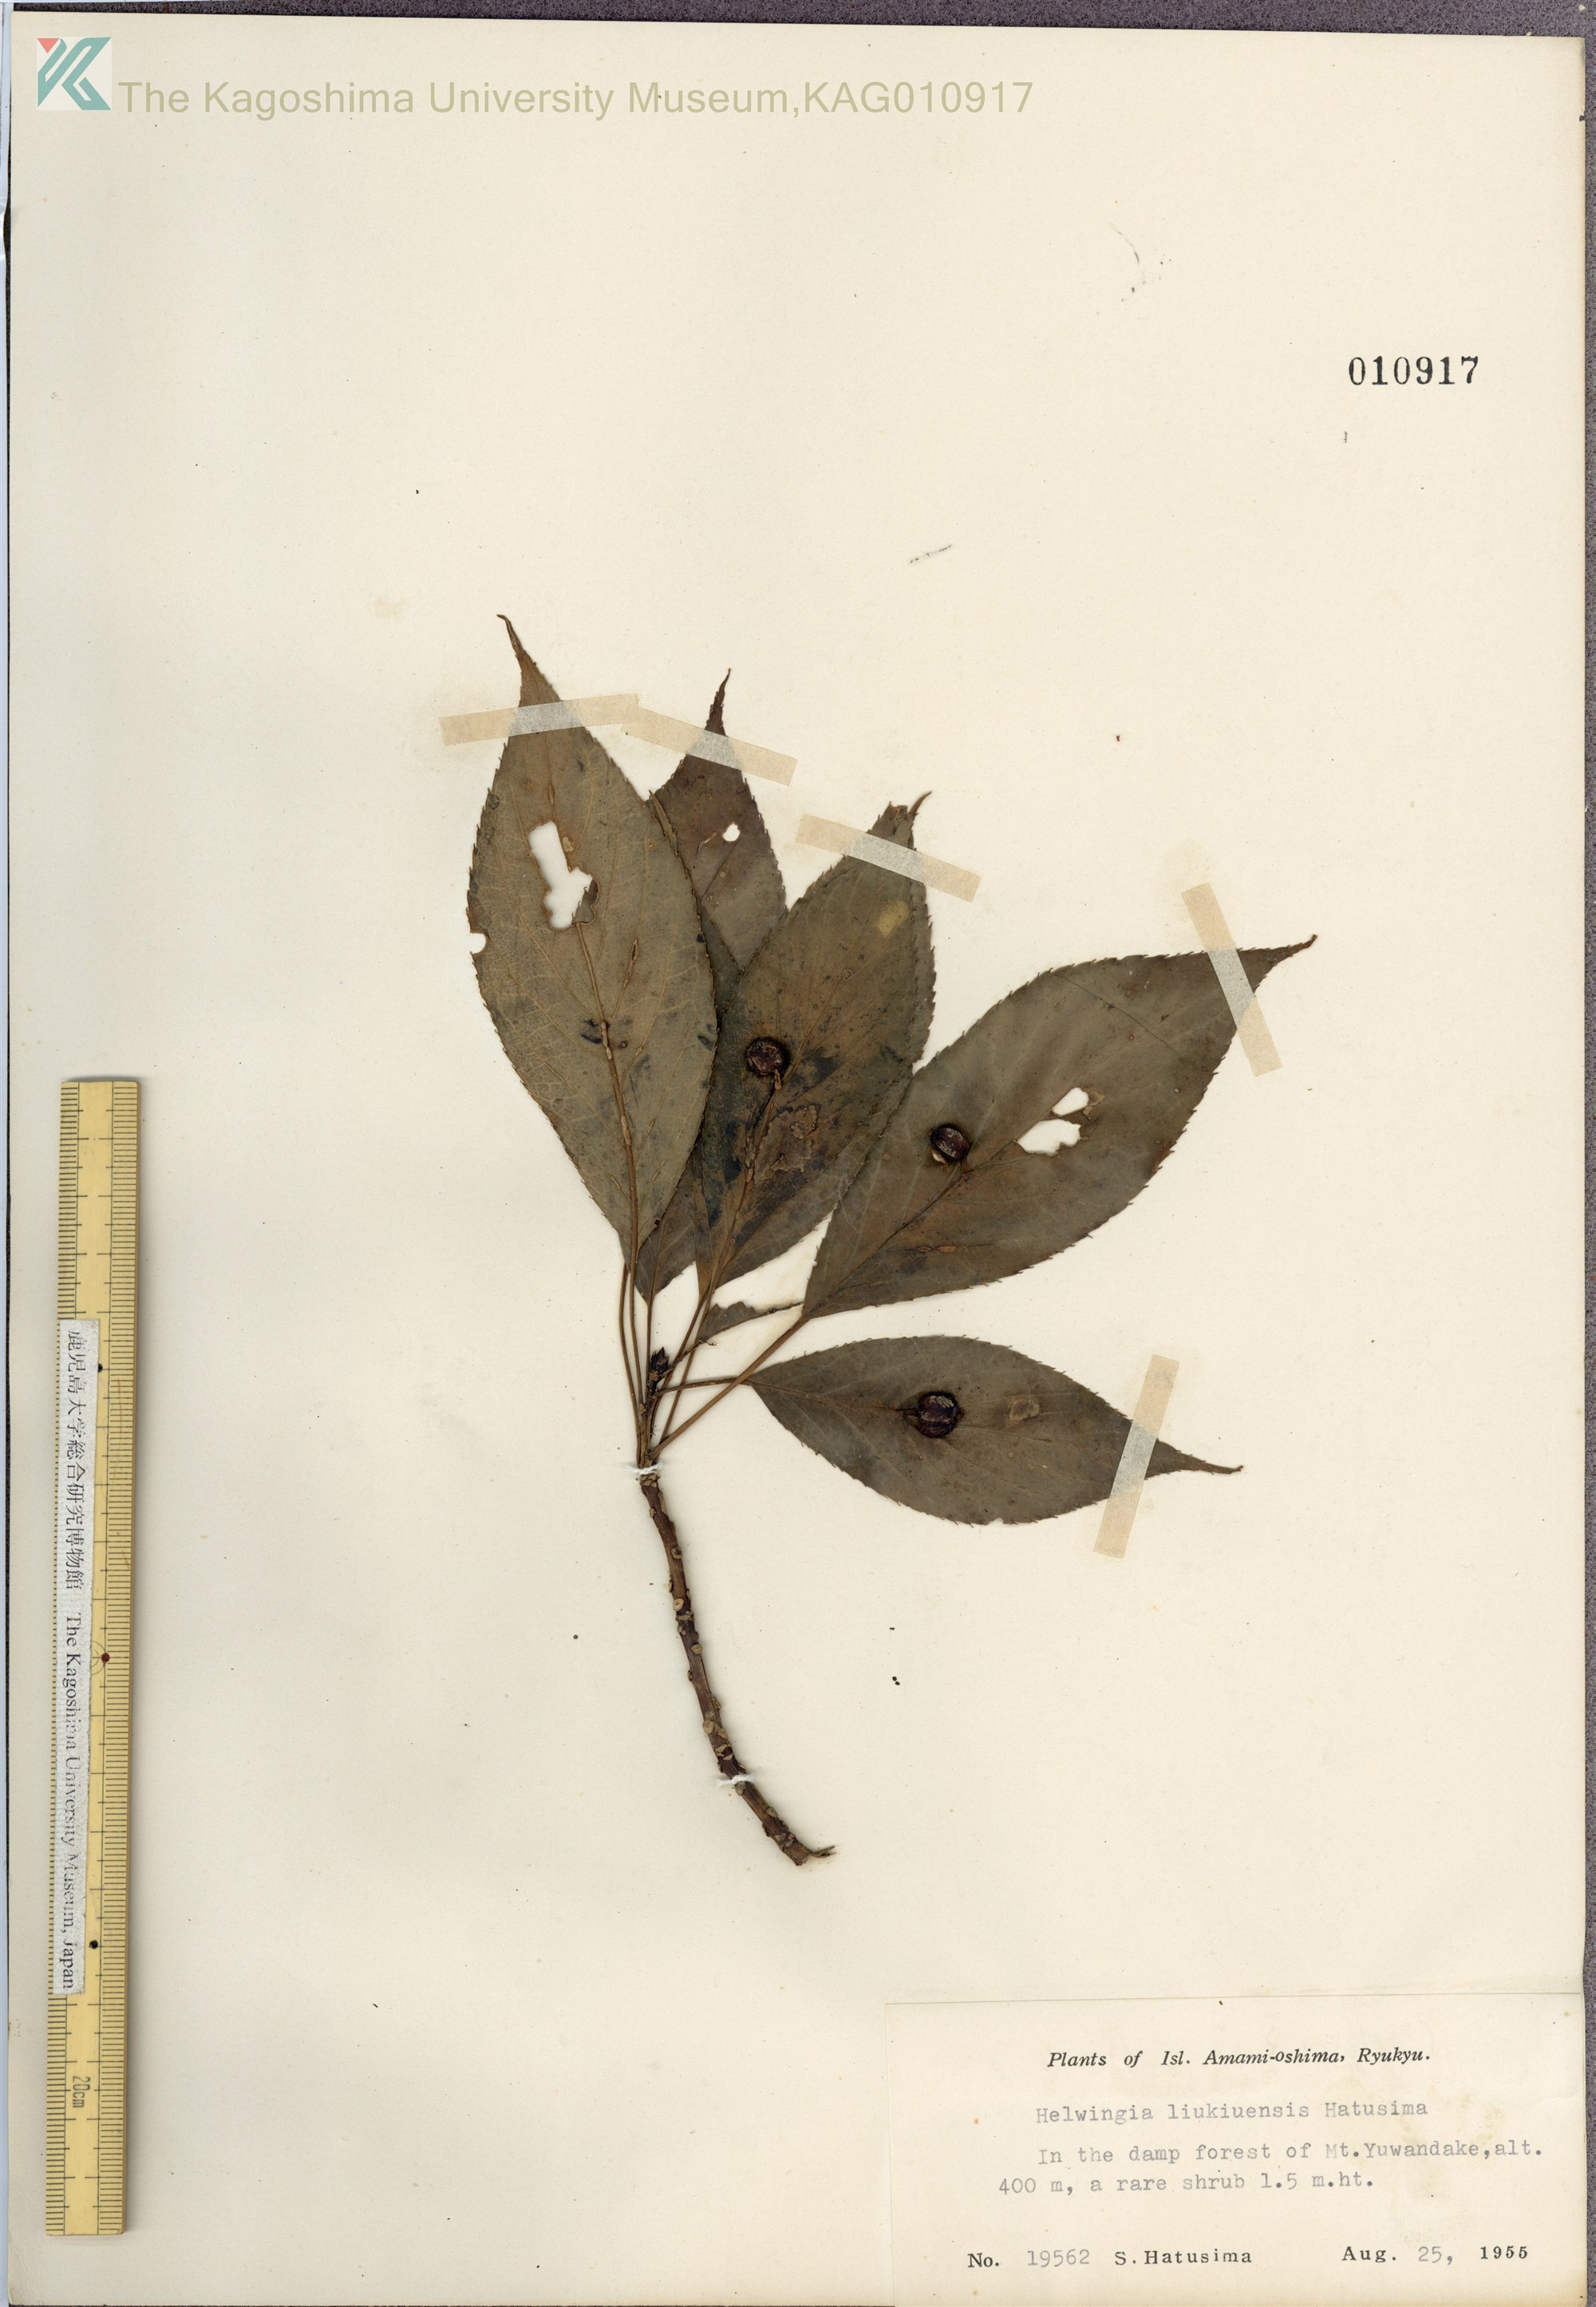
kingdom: Plantae
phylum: Tracheophyta
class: Magnoliopsida
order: Aquifoliales
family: Helwingiaceae
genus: Helwingia
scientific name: Helwingia japonica
